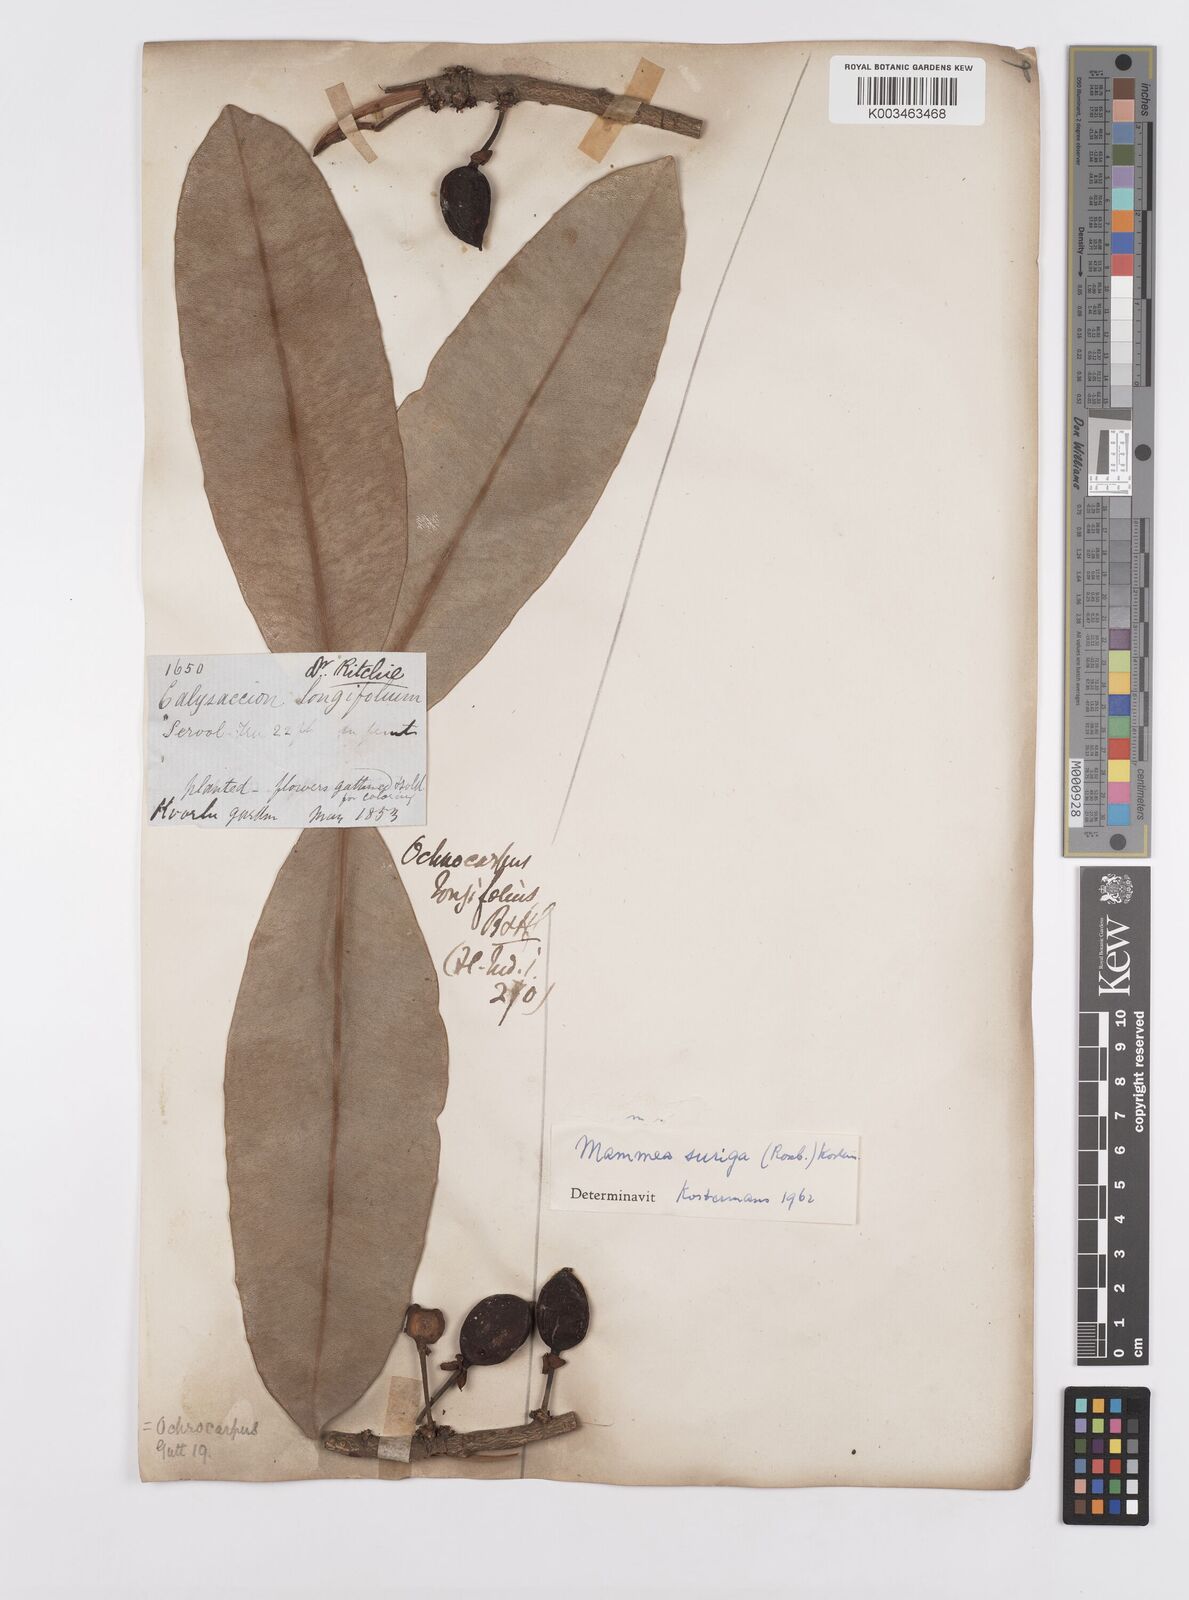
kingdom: Plantae
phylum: Tracheophyta
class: Magnoliopsida
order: Malpighiales
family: Calophyllaceae
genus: Mammea
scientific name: Mammea suriga
